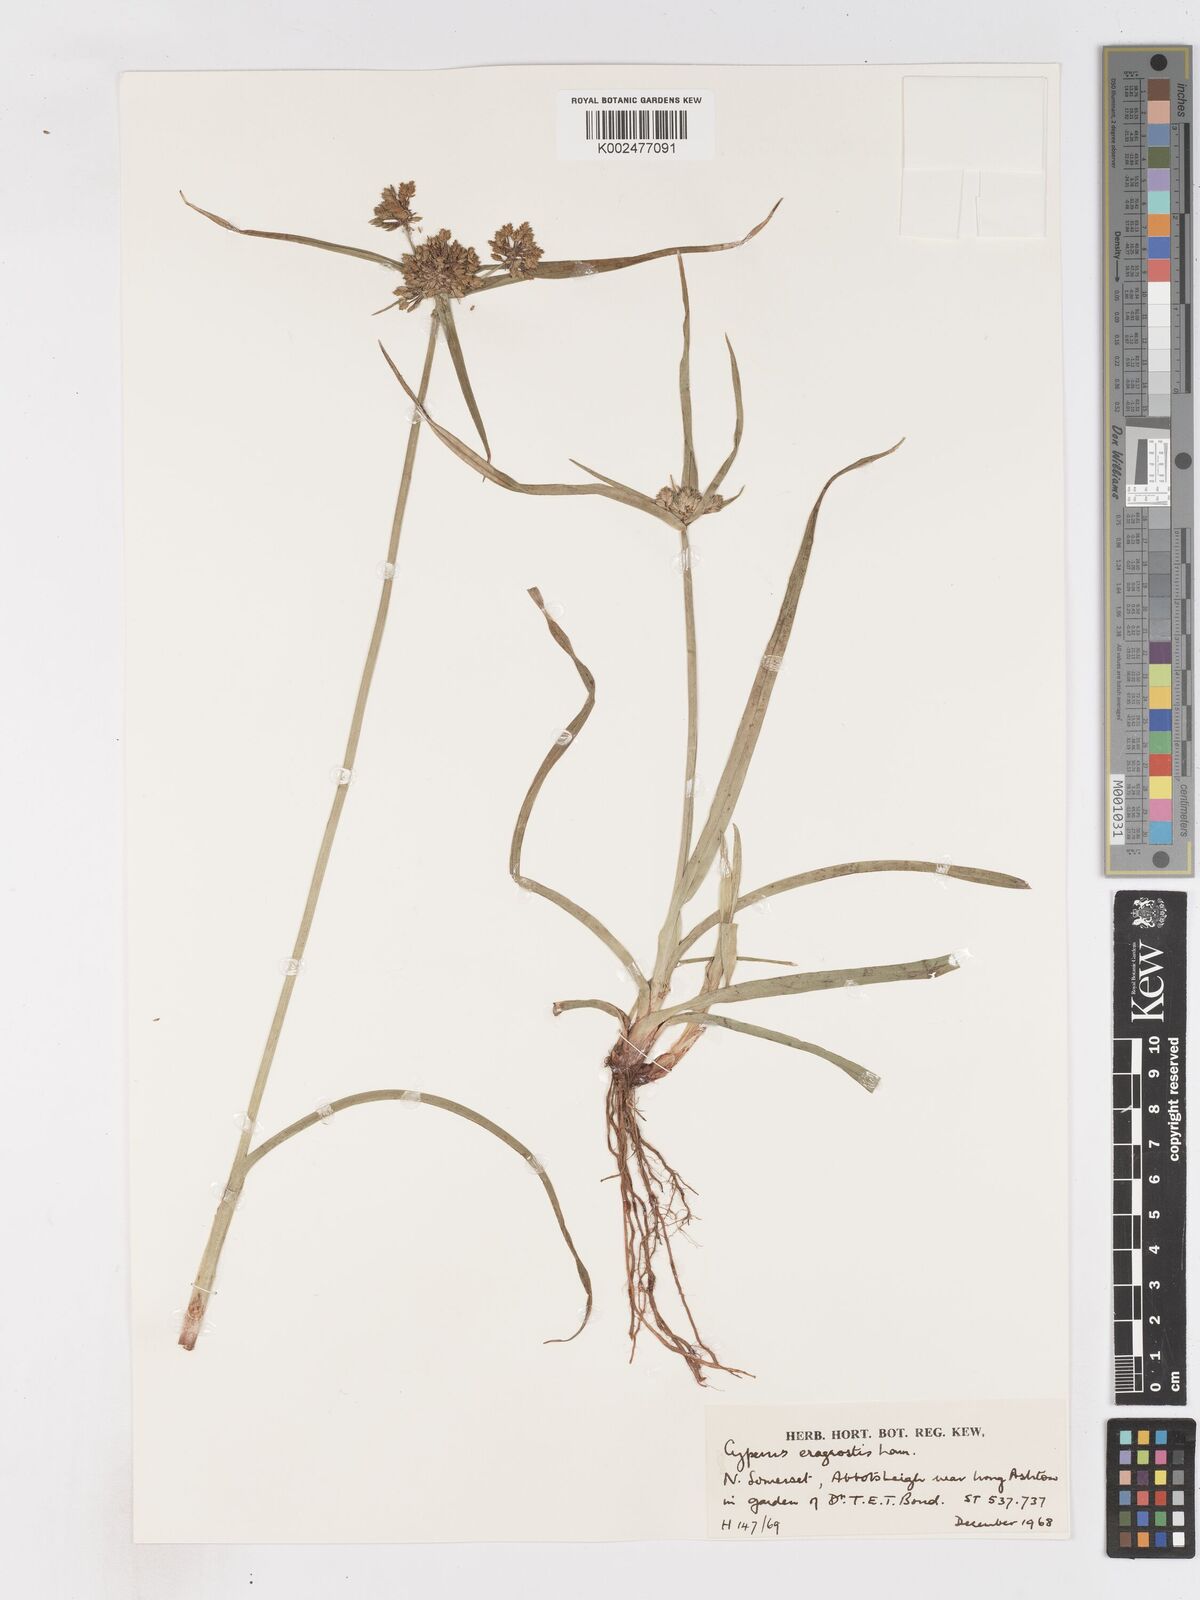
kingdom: Plantae
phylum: Tracheophyta
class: Liliopsida
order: Poales
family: Cyperaceae
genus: Cyperus
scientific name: Cyperus eragrostis
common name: Tall flatsedge
